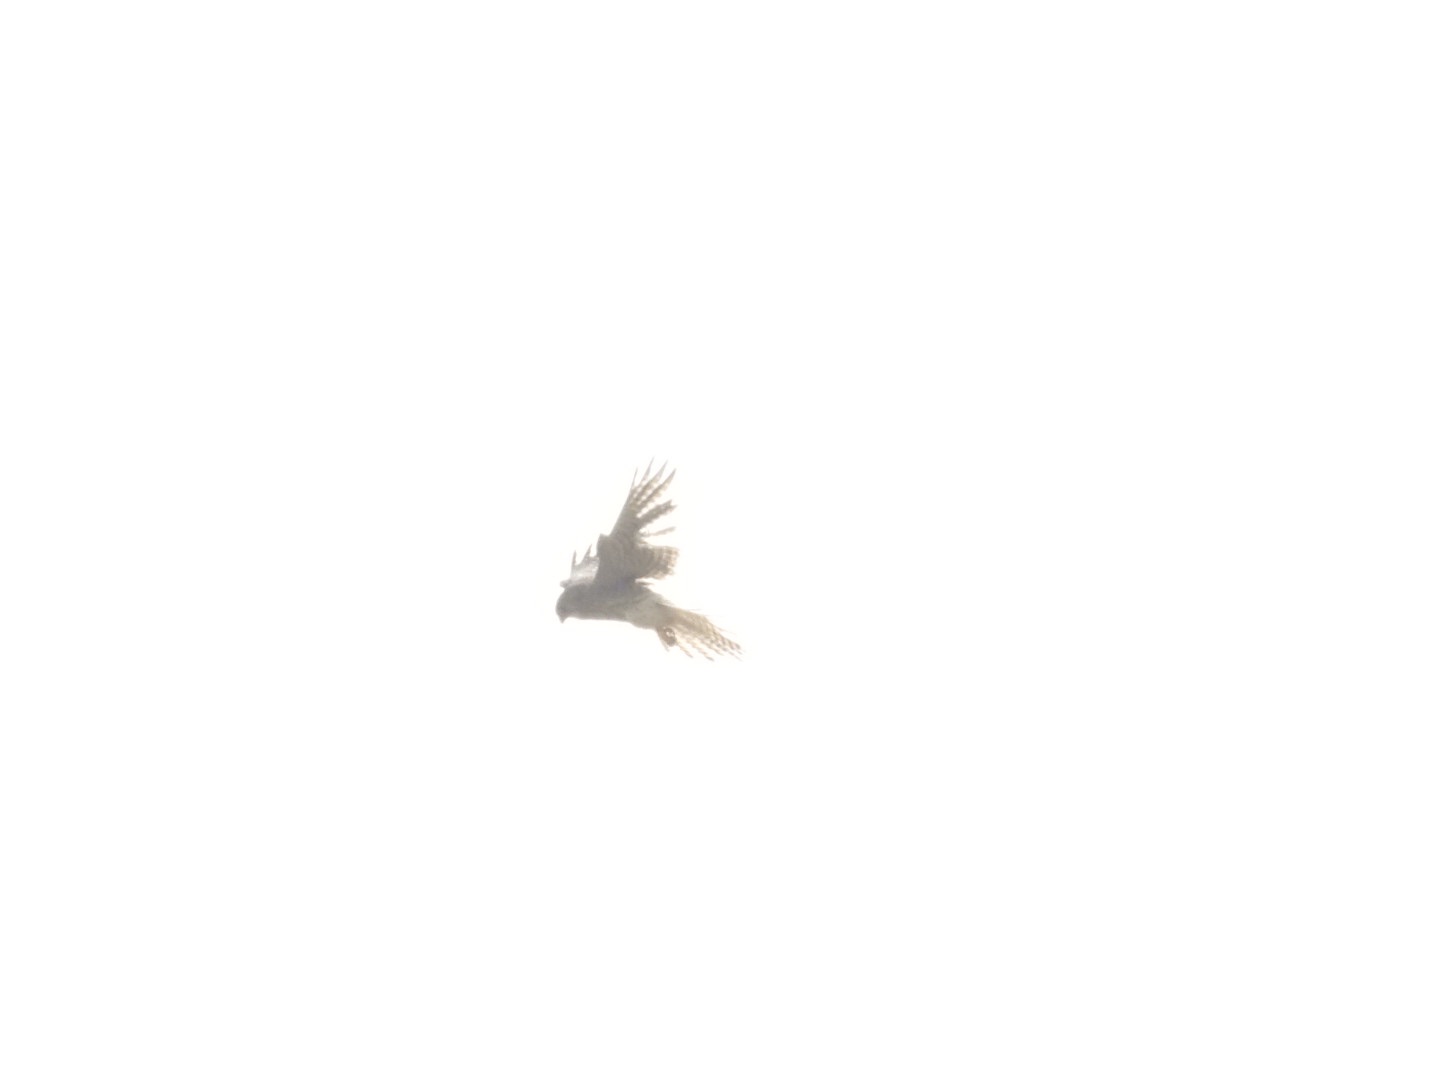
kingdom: Animalia
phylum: Chordata
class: Aves
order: Falconiformes
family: Falconidae
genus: Falco
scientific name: Falco tinnunculus
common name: Tårnfalk
